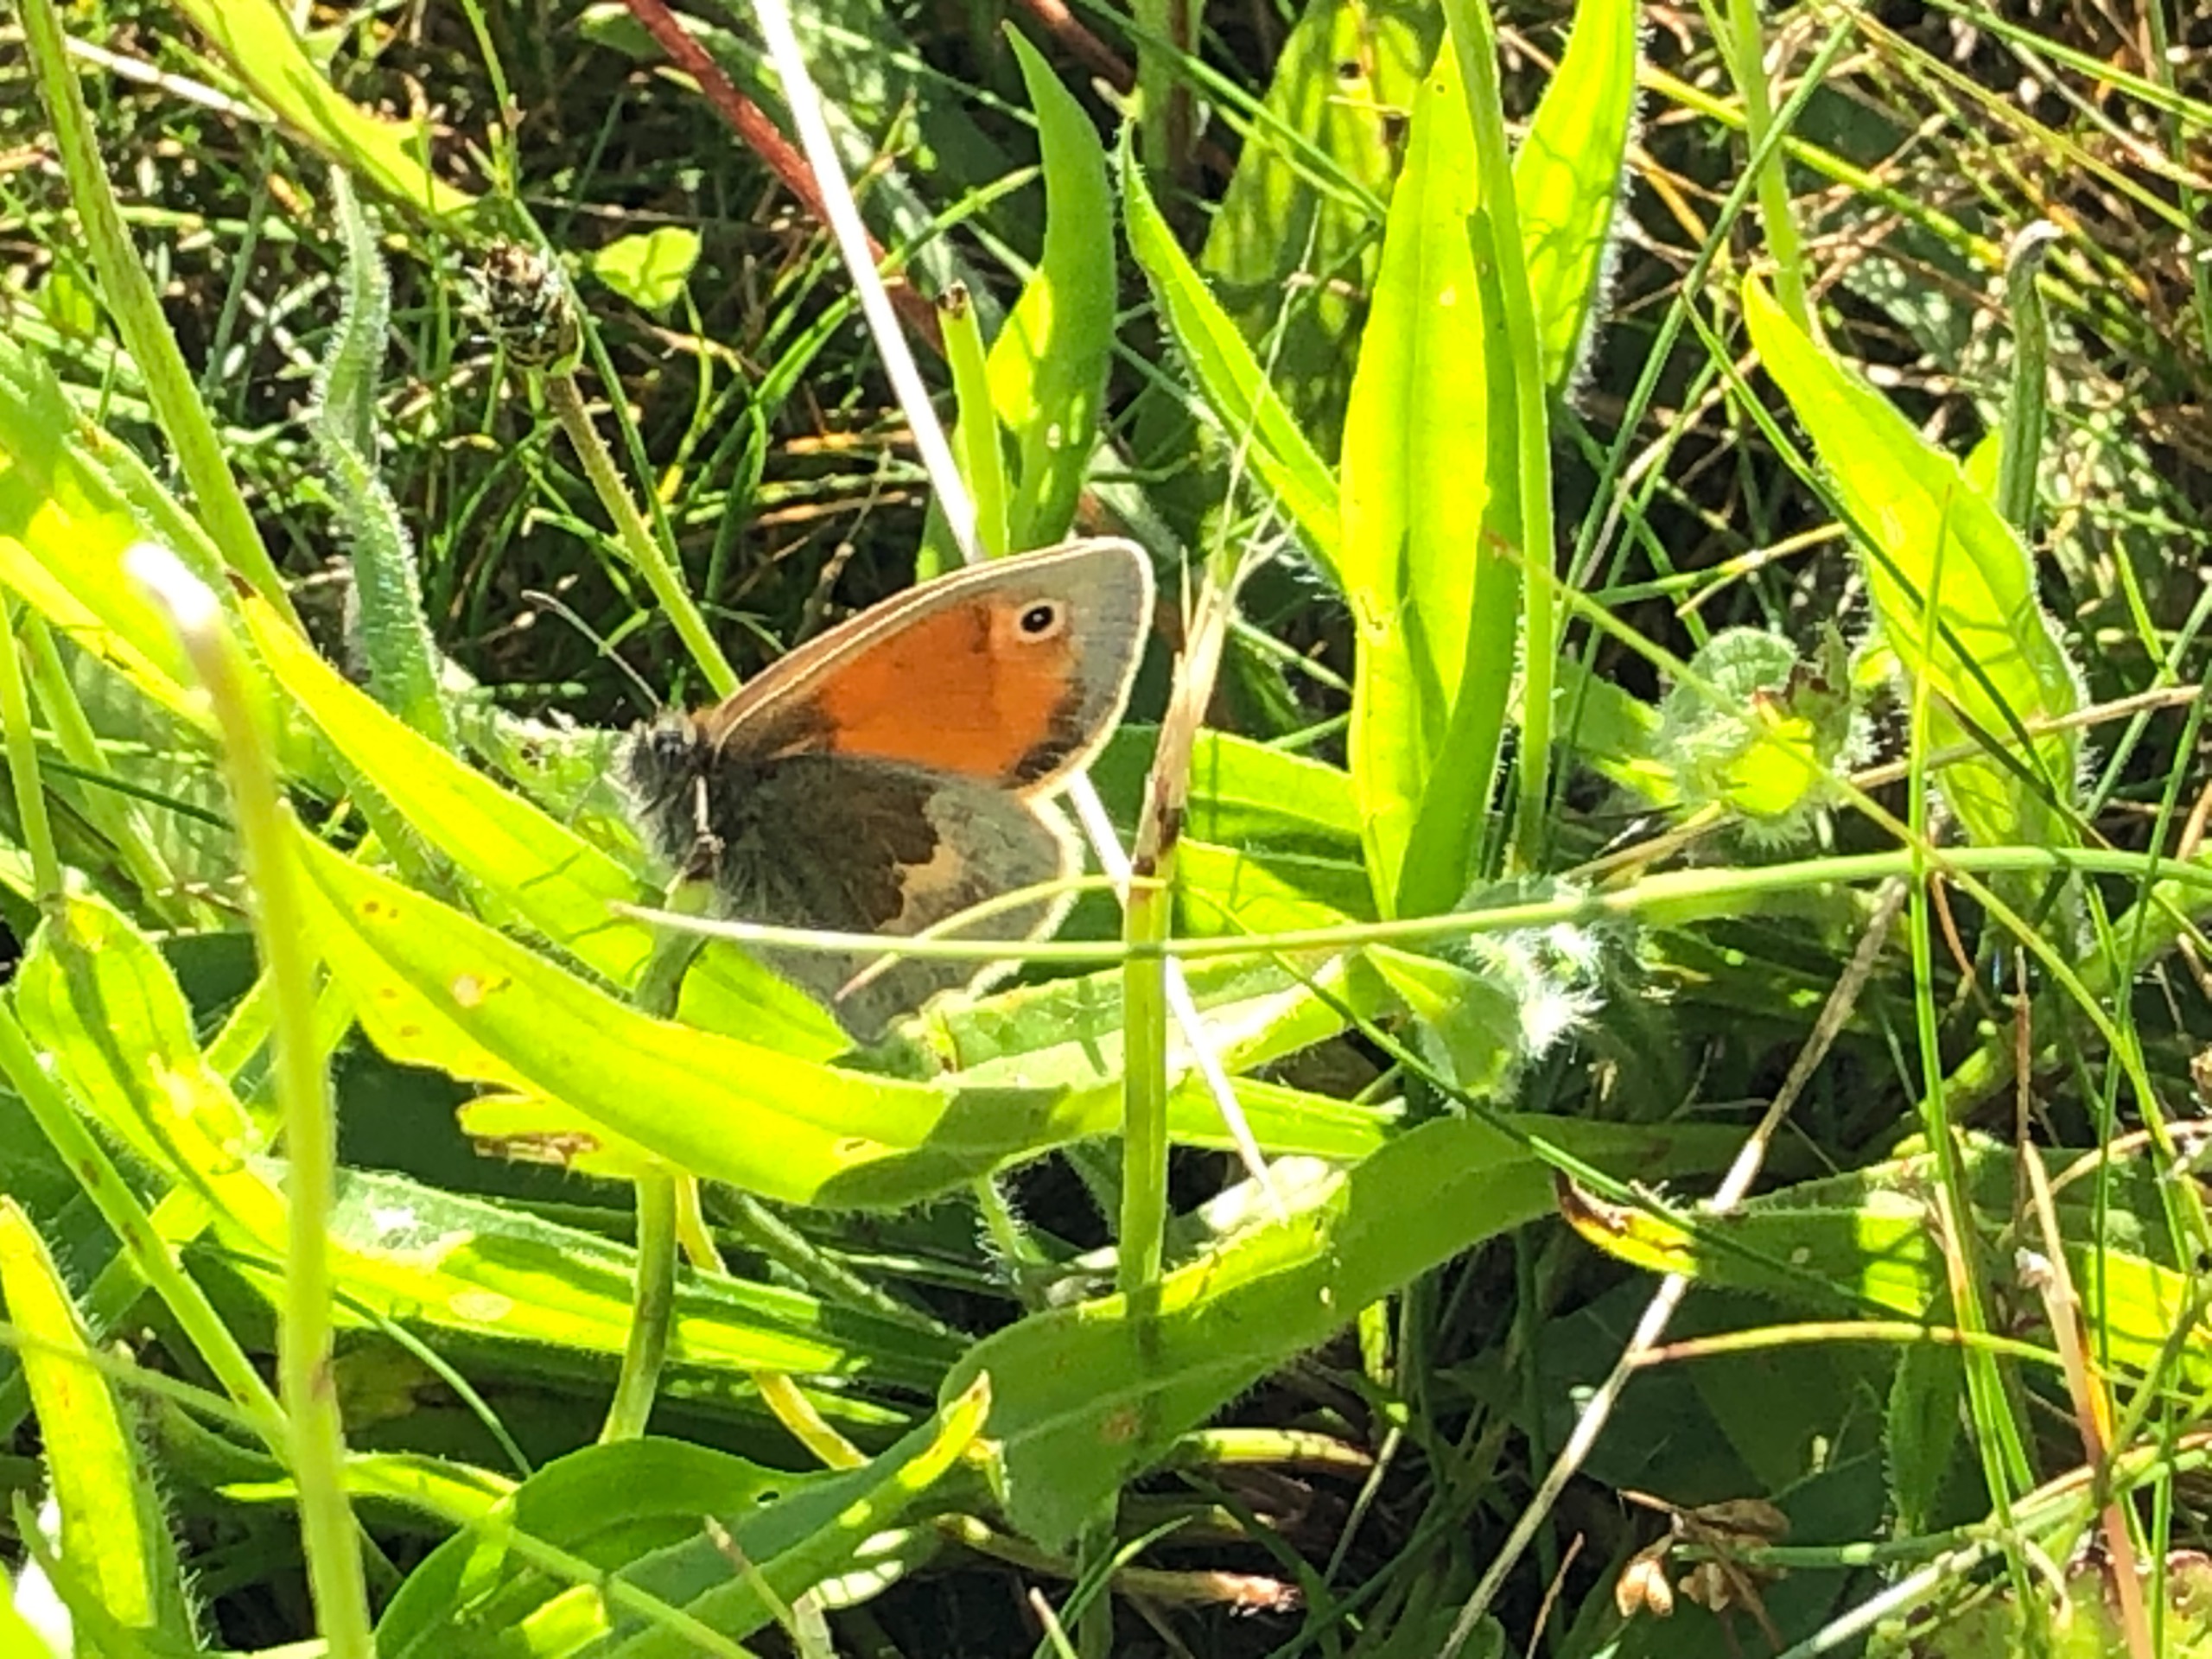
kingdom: Animalia
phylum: Arthropoda
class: Insecta
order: Lepidoptera
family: Nymphalidae
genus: Coenonympha
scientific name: Coenonympha pamphilus
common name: Okkergul randøje
